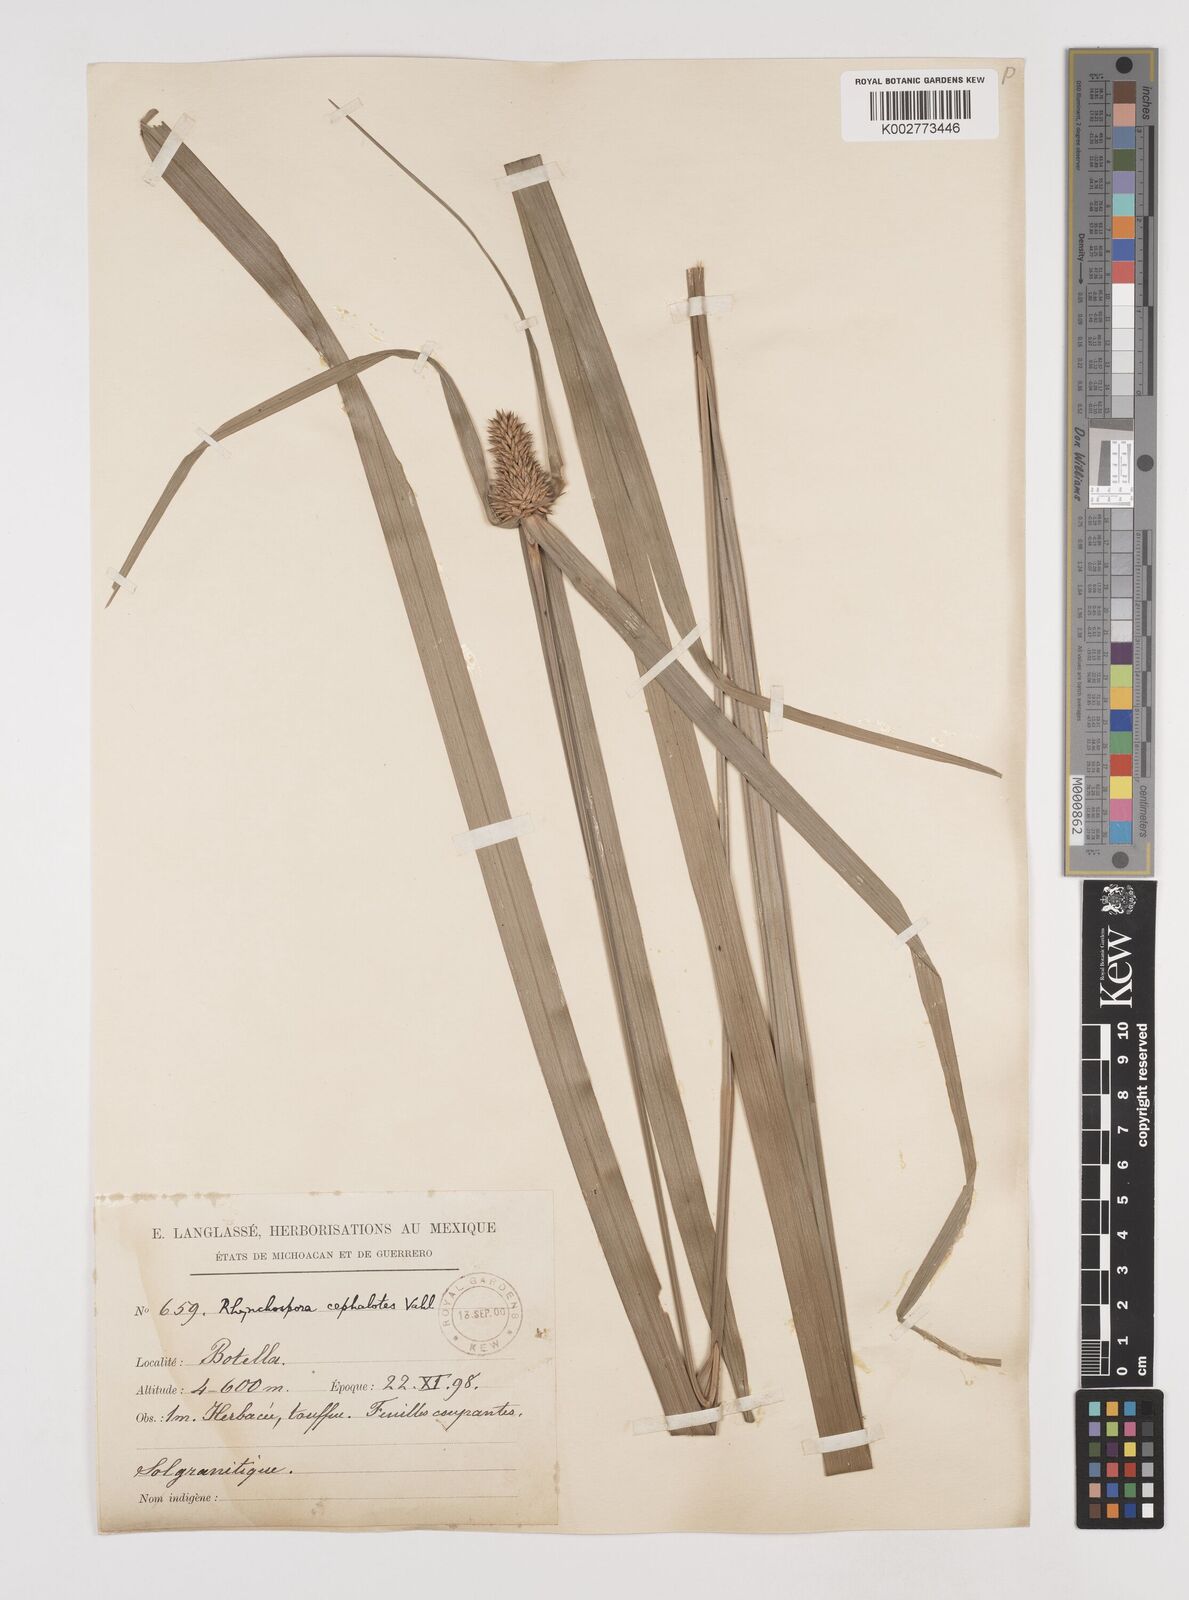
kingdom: Plantae
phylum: Tracheophyta
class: Liliopsida
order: Poales
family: Cyperaceae
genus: Rhynchospora
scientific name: Rhynchospora cephalotes
